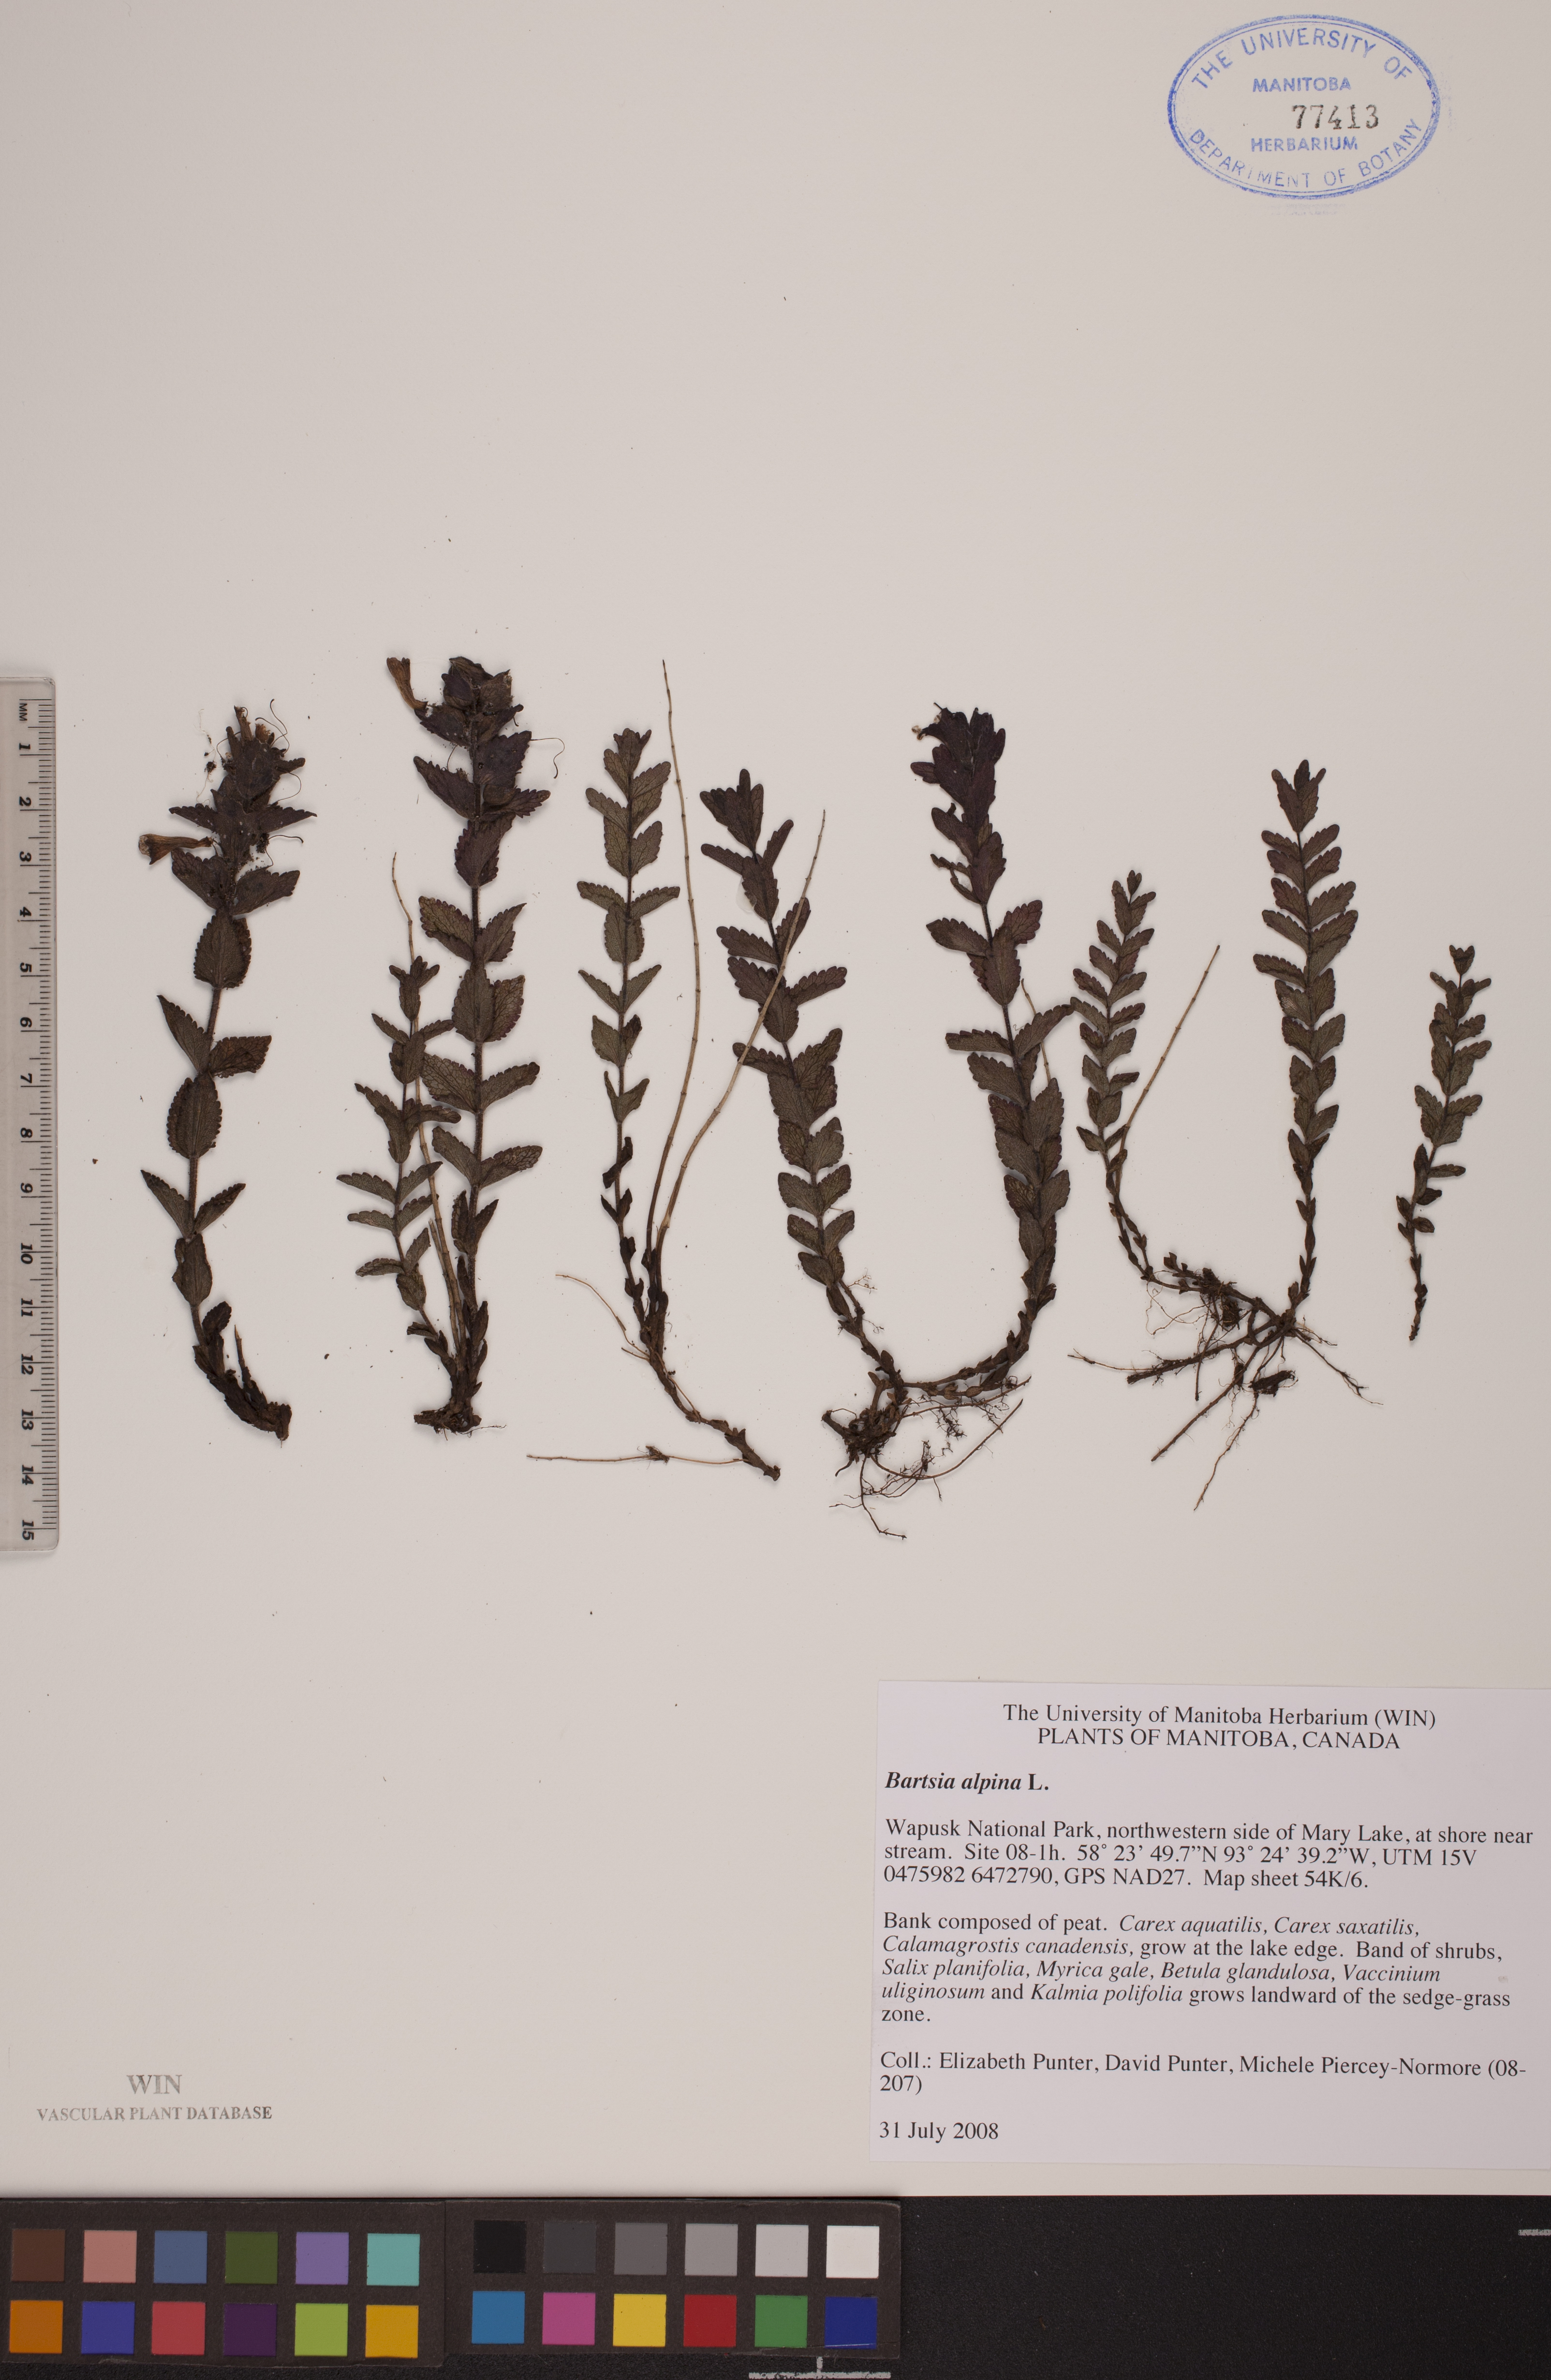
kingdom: Plantae
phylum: Tracheophyta
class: Magnoliopsida
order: Lamiales
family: Orobanchaceae
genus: Bartsia
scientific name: Bartsia alpina
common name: Alpine bartsia
